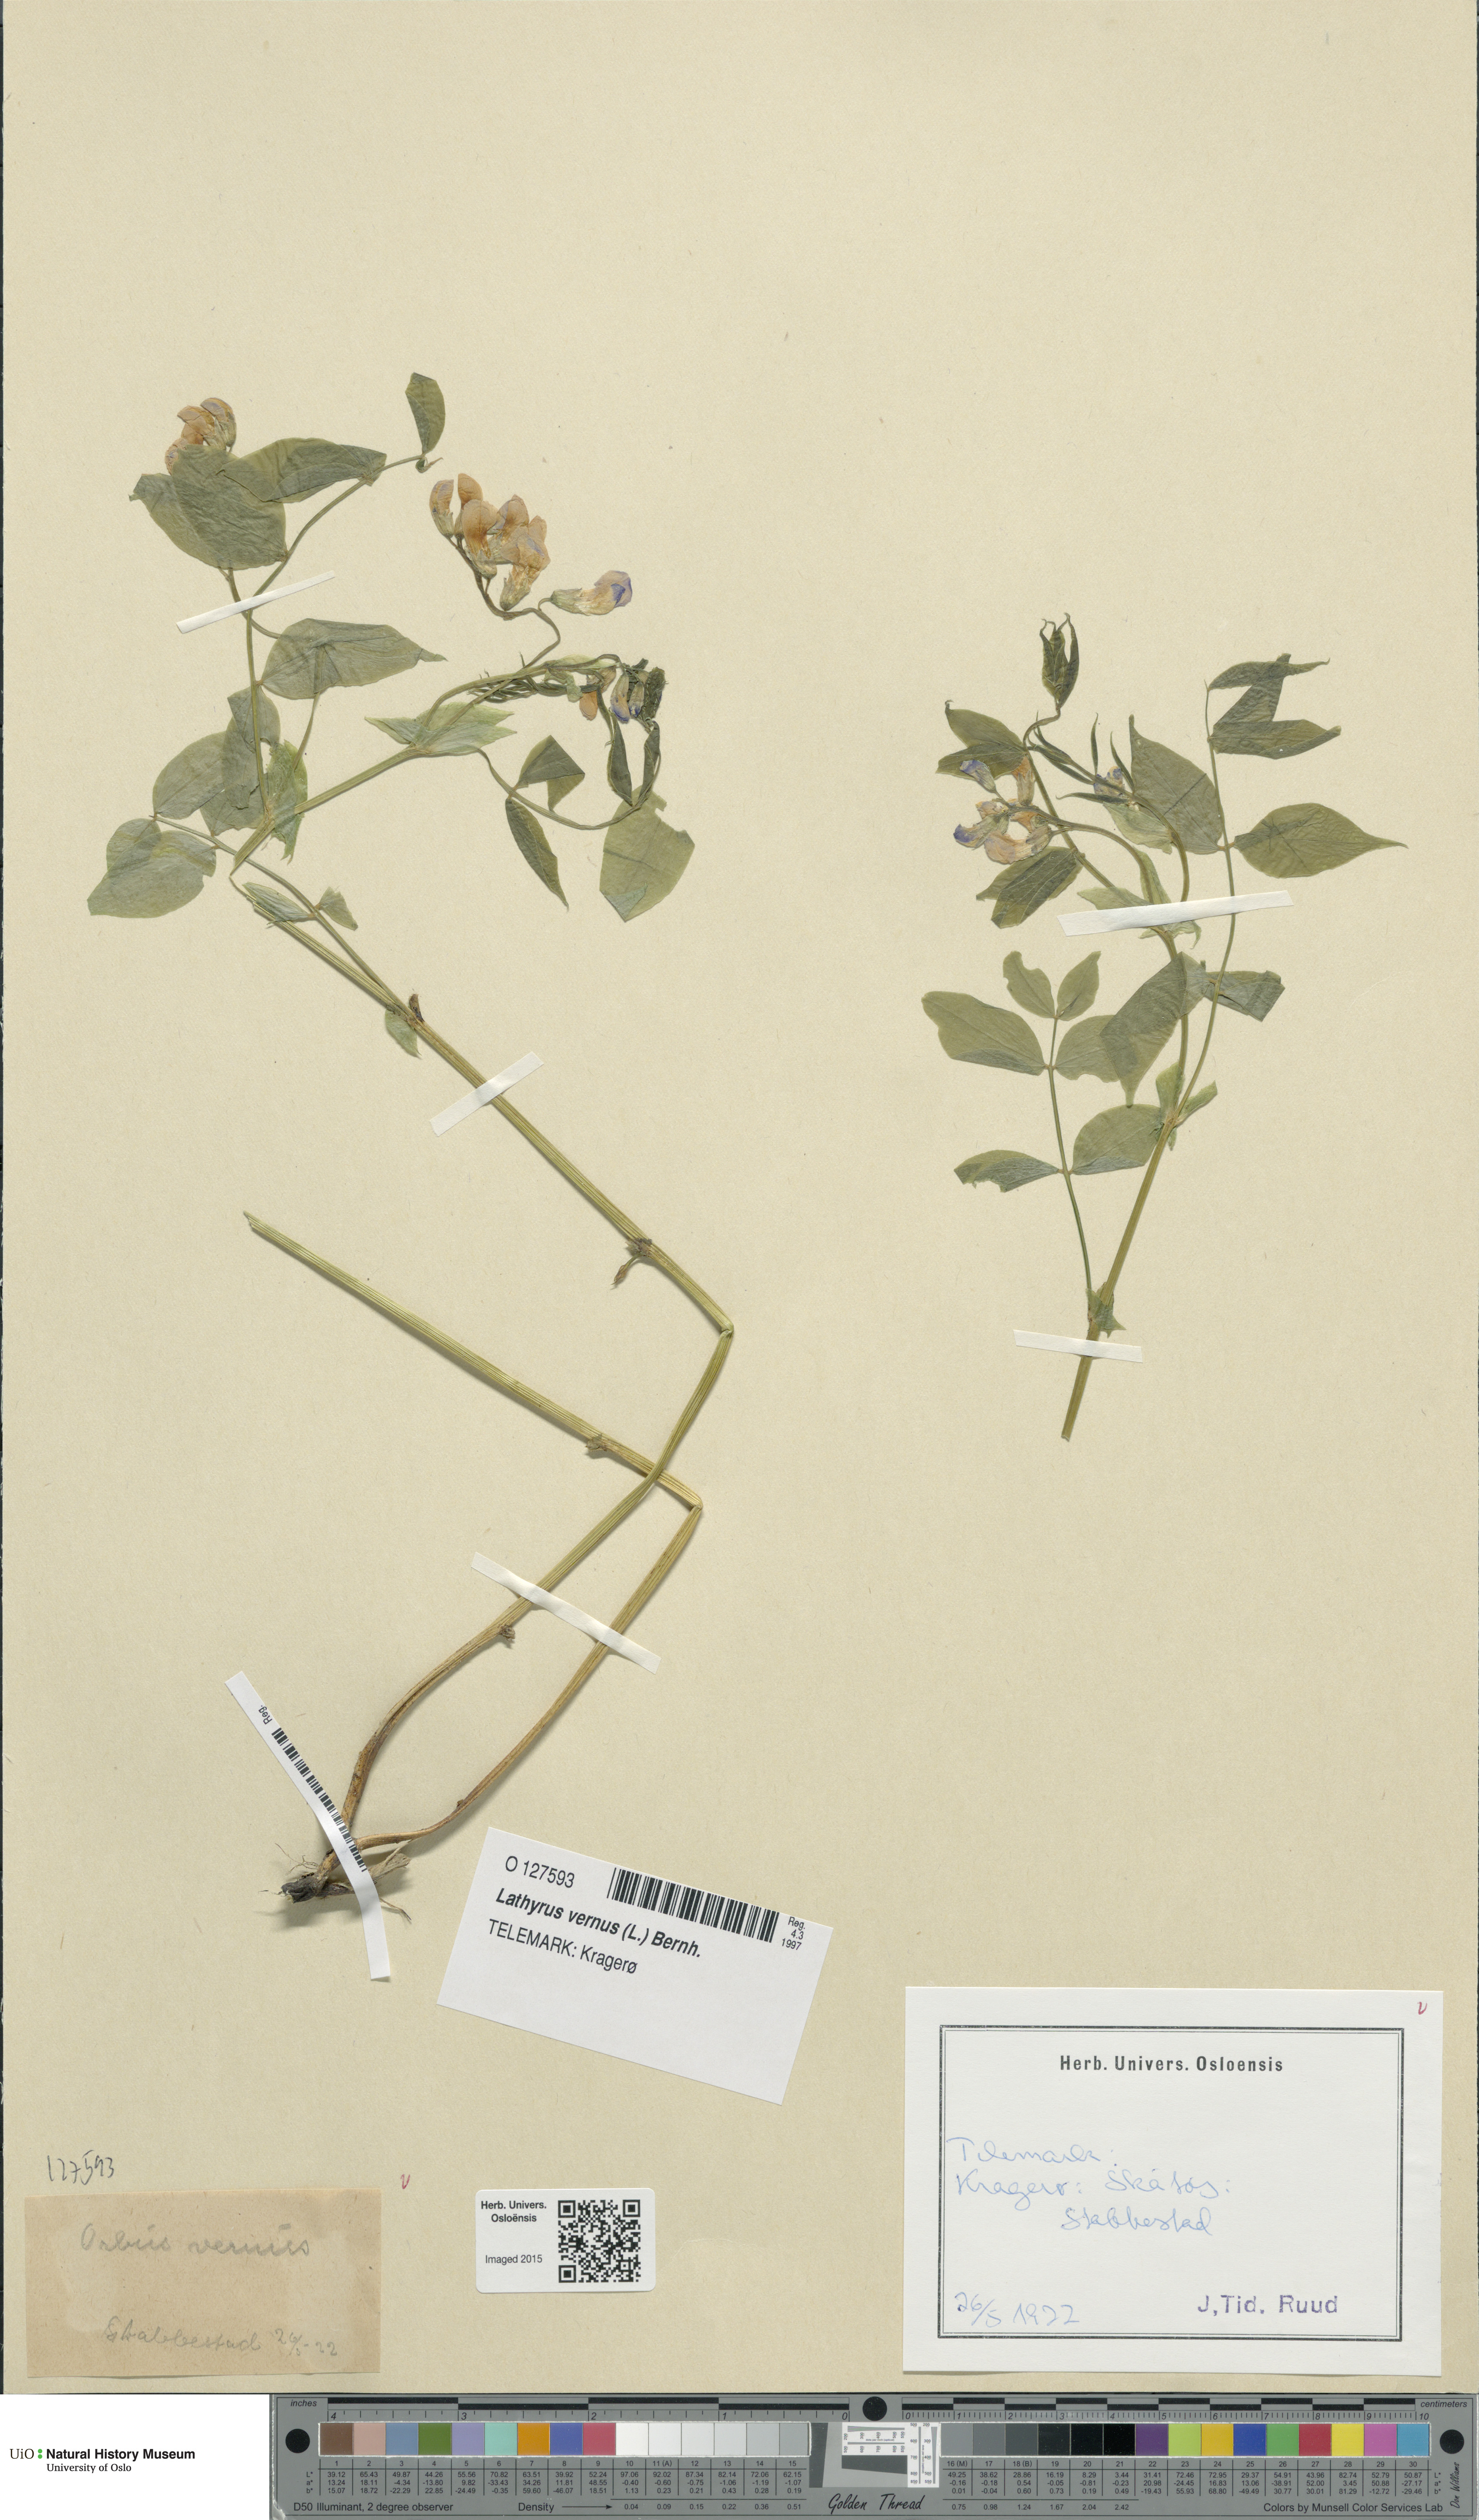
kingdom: Plantae
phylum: Tracheophyta
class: Magnoliopsida
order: Fabales
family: Fabaceae
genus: Lathyrus
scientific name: Lathyrus vernus
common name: Spring pea
